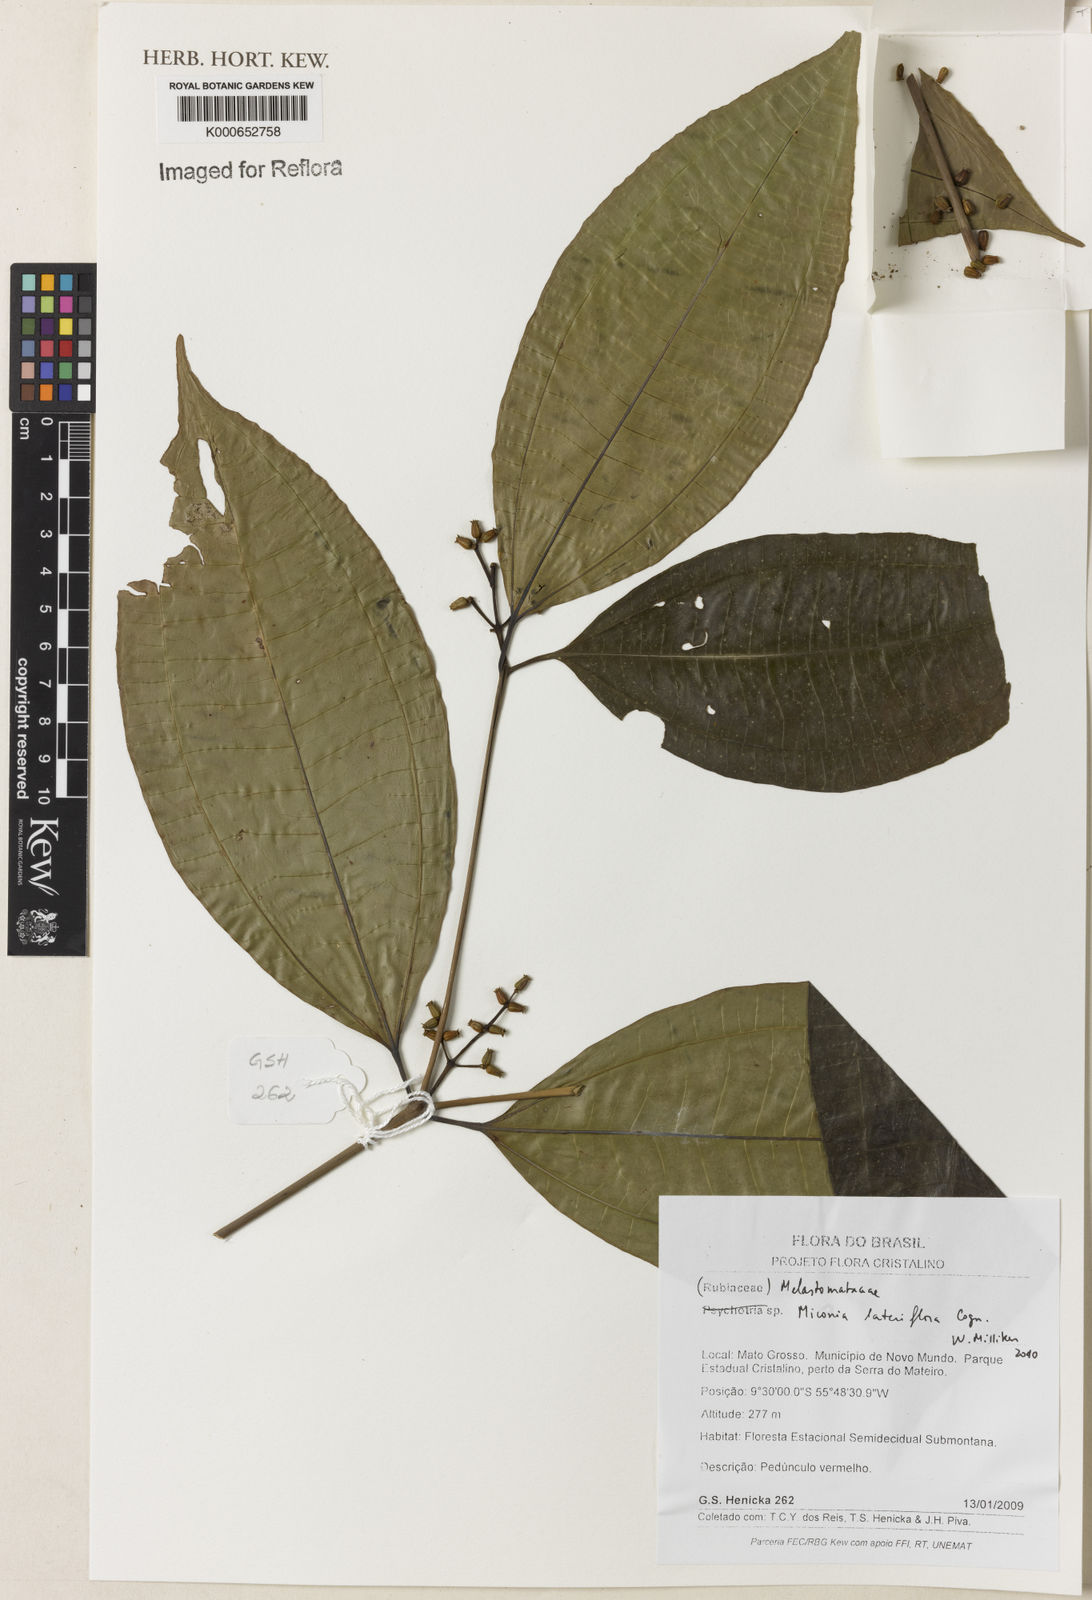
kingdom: Plantae
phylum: Tracheophyta
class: Magnoliopsida
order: Myrtales
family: Melastomataceae
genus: Miconia
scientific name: Miconia lateriflora
